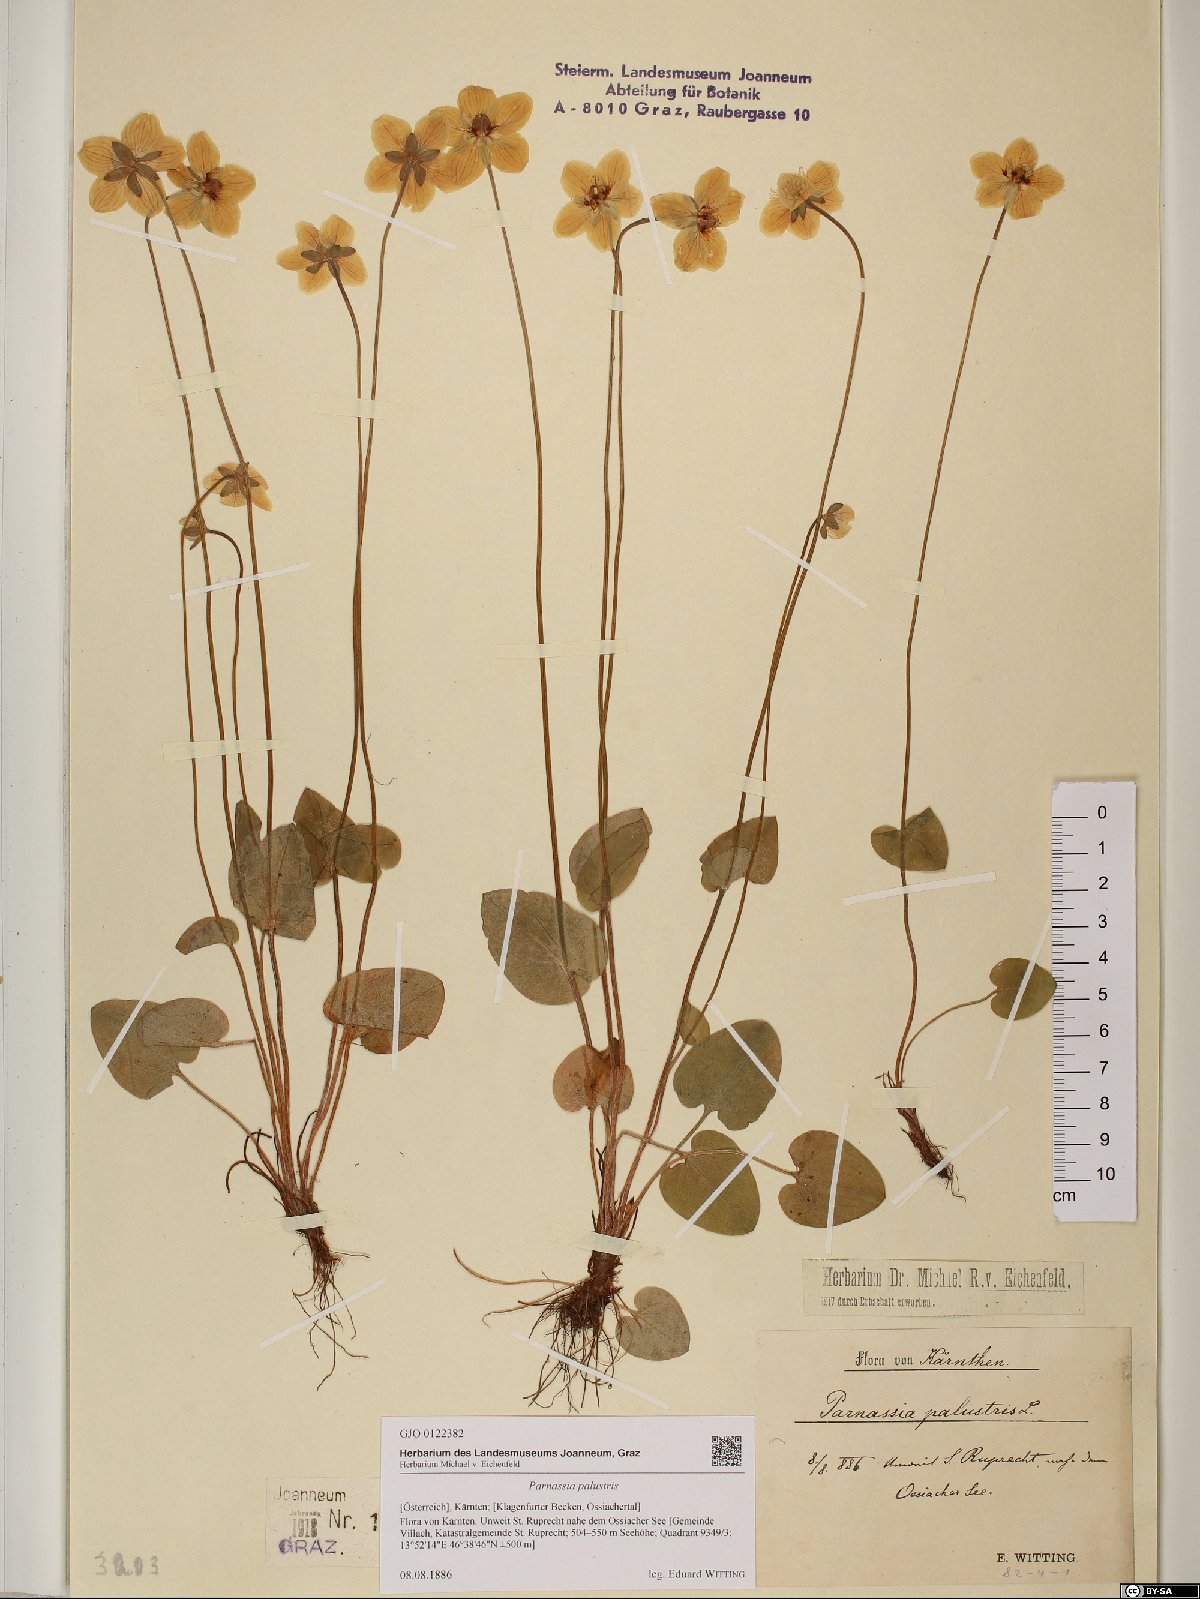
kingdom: Plantae
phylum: Tracheophyta
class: Magnoliopsida
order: Celastrales
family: Parnassiaceae
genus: Parnassia
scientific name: Parnassia palustris
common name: Grass-of-parnassus
